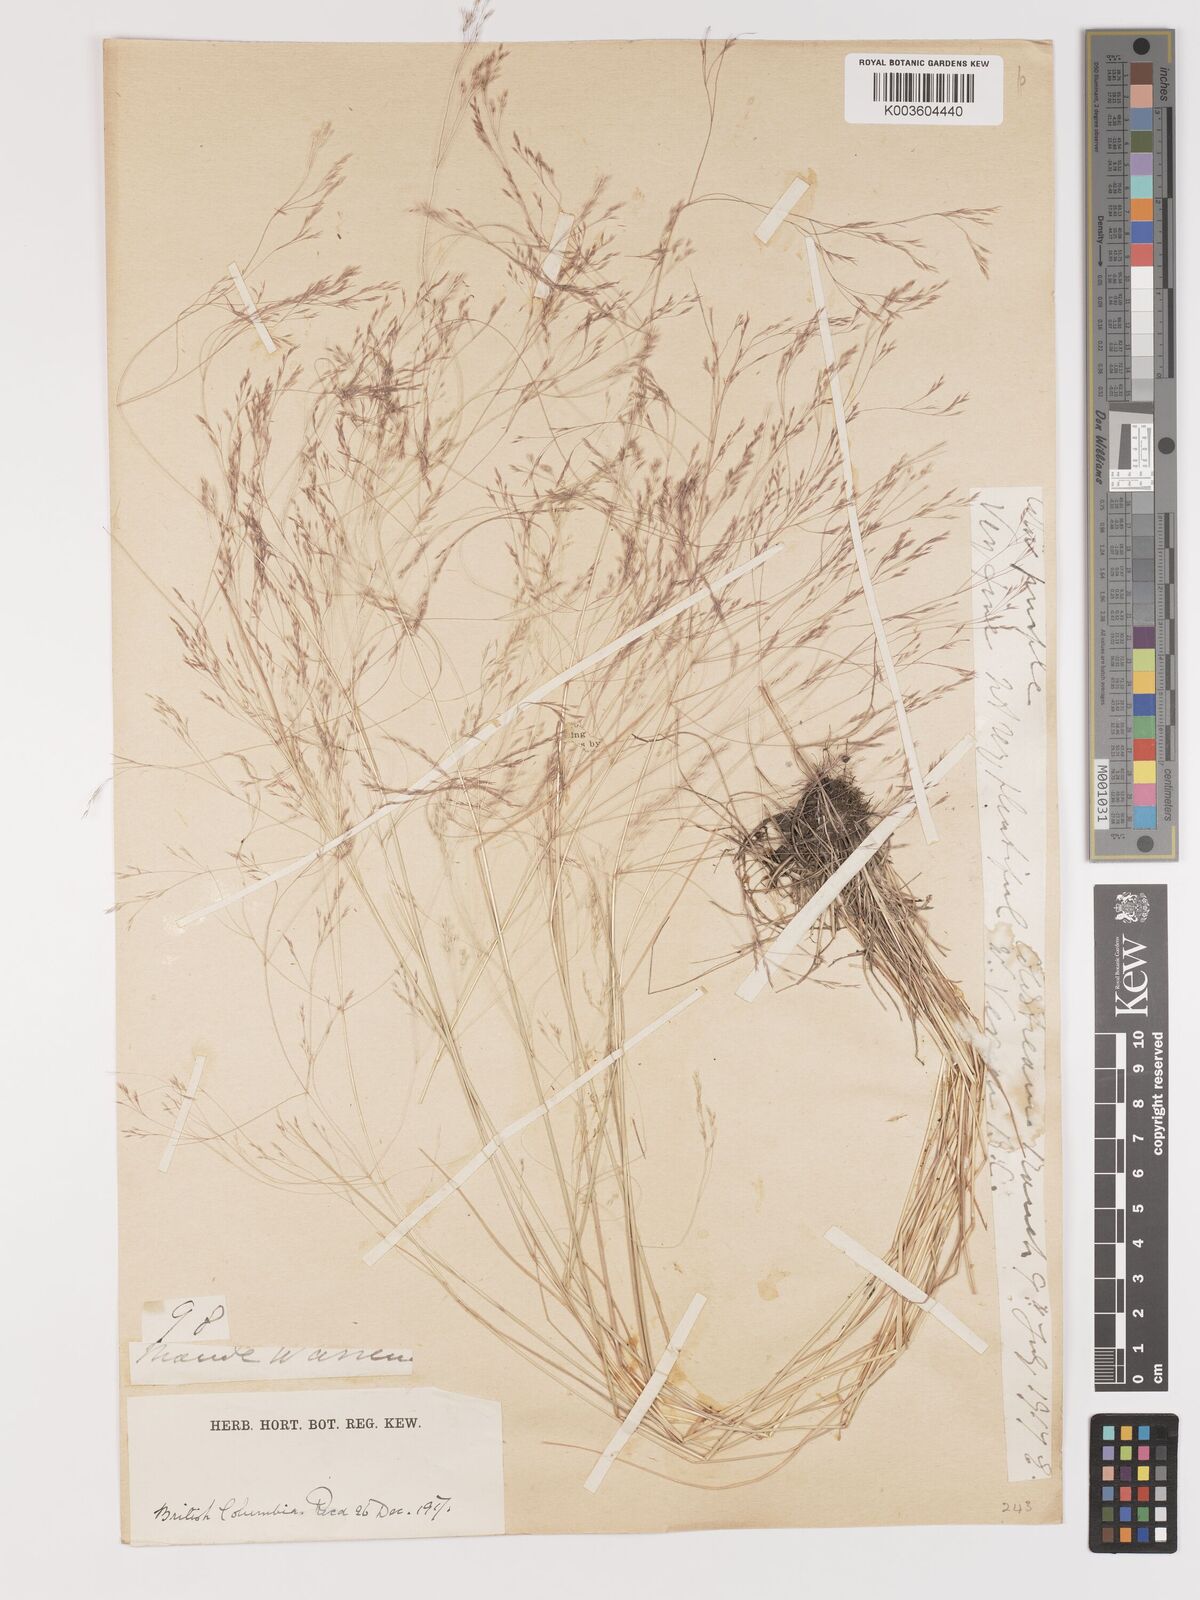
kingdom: Plantae
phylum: Tracheophyta
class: Liliopsida
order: Poales
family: Poaceae
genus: Agrostis
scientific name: Agrostis hyemalis
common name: Small bent
